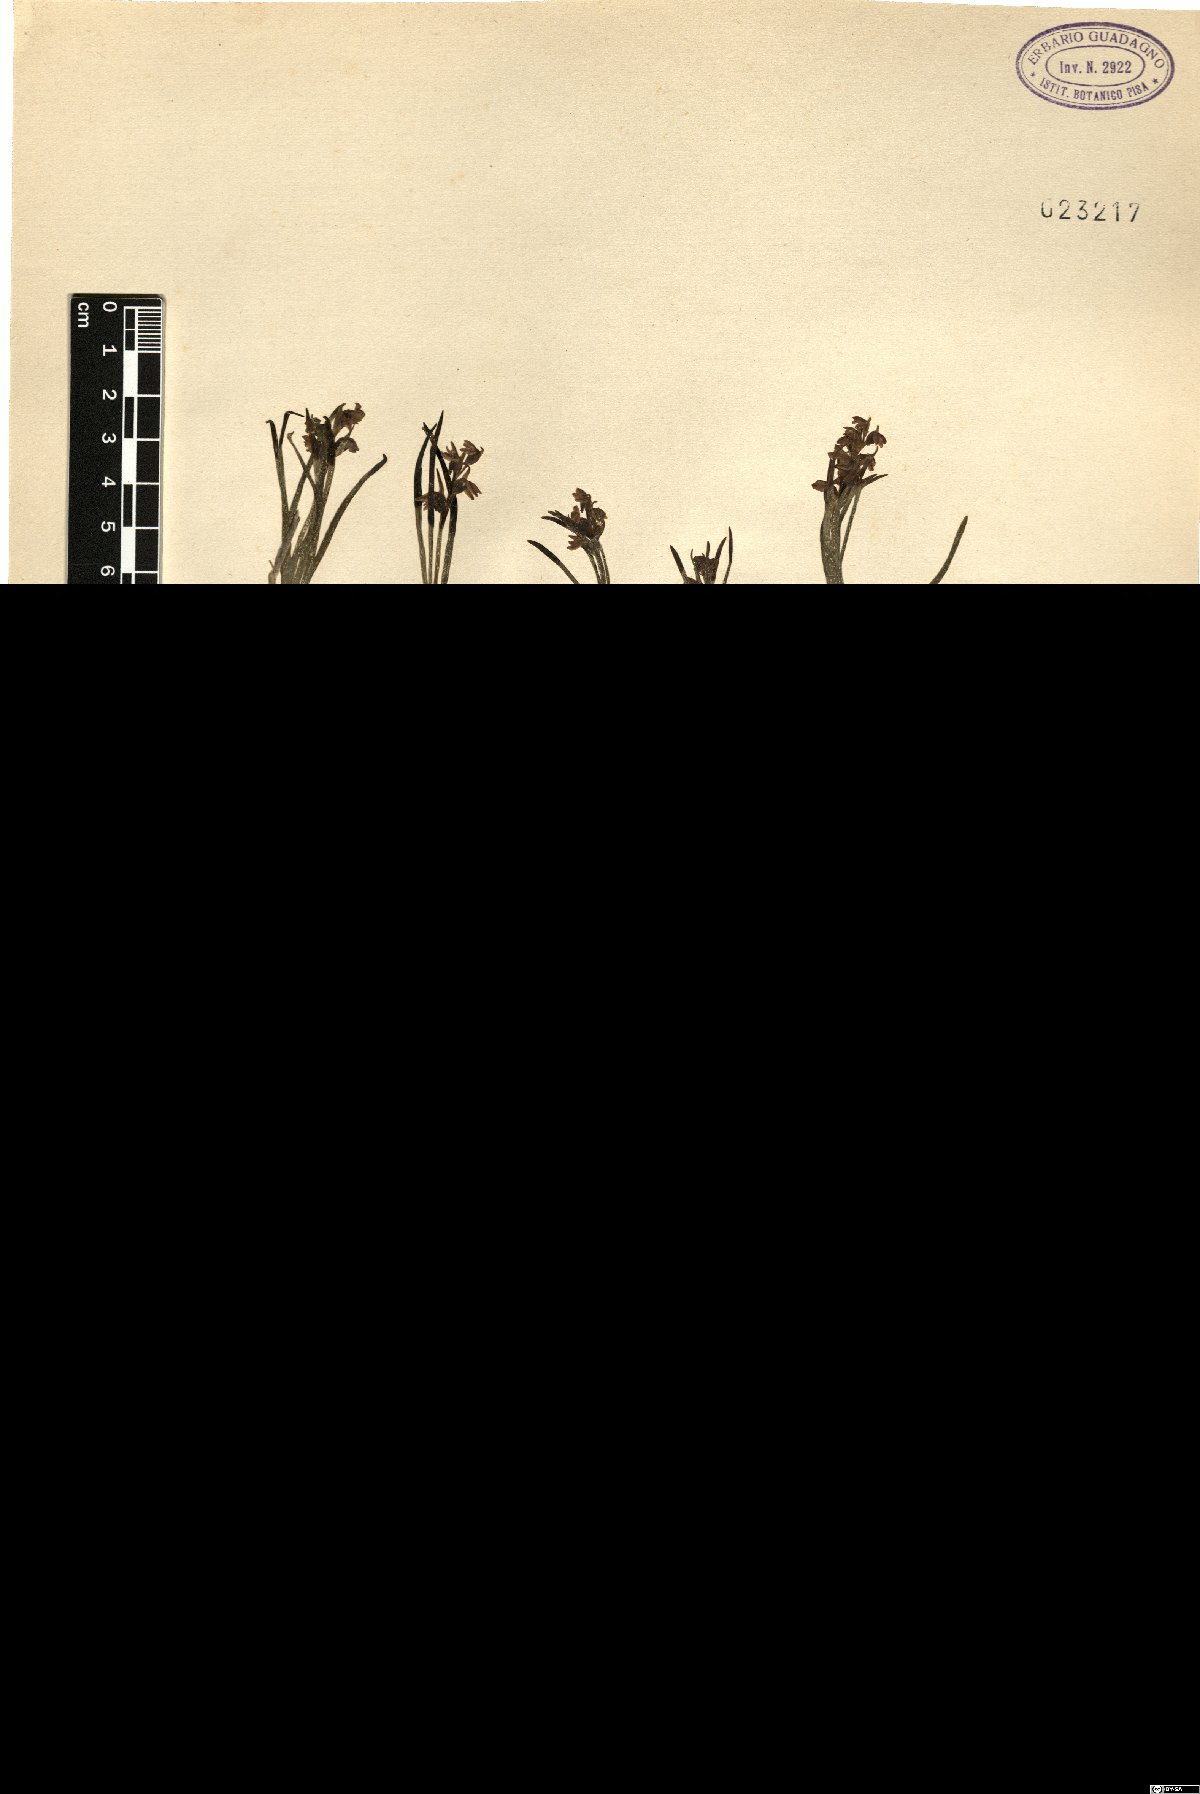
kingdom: Plantae
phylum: Tracheophyta
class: Liliopsida
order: Asparagales
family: Orchidaceae
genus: Chamorchis
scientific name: Chamorchis alpina
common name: Alpine chamorchis
